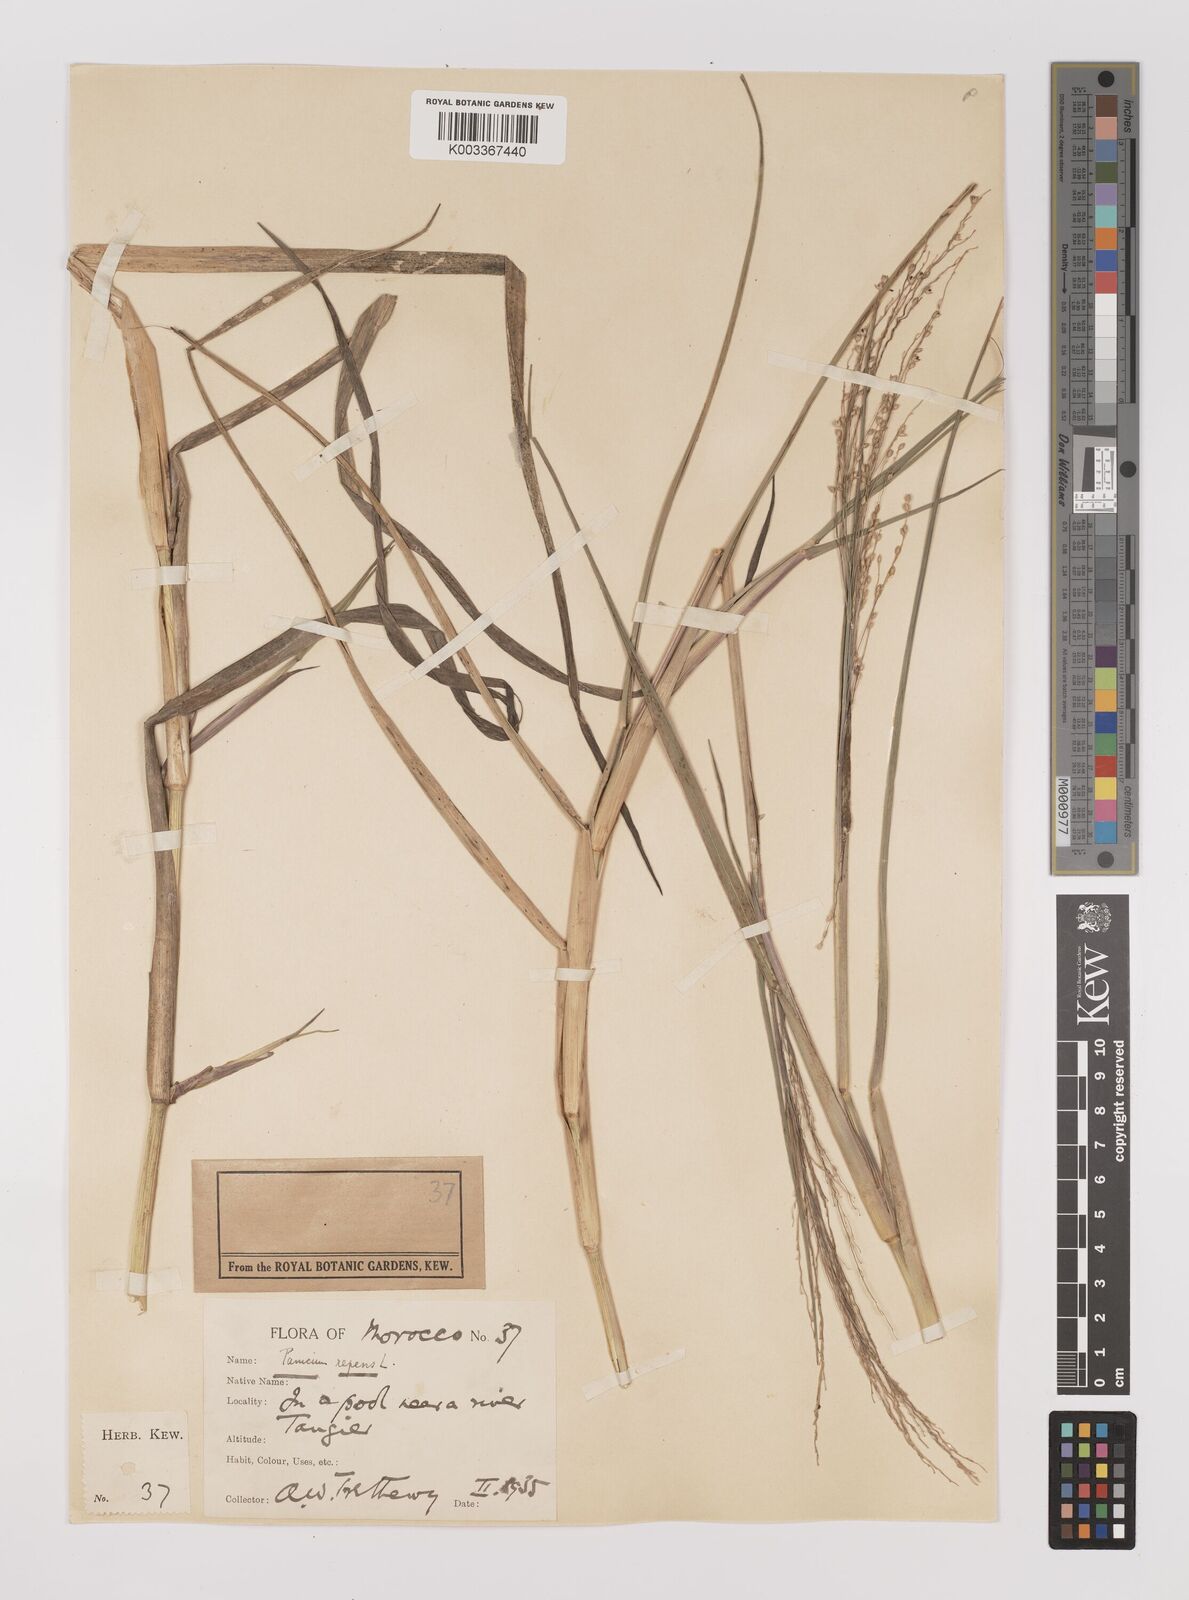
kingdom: Plantae
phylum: Tracheophyta
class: Liliopsida
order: Poales
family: Poaceae
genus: Panicum
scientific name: Panicum repens
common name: Torpedo grass
